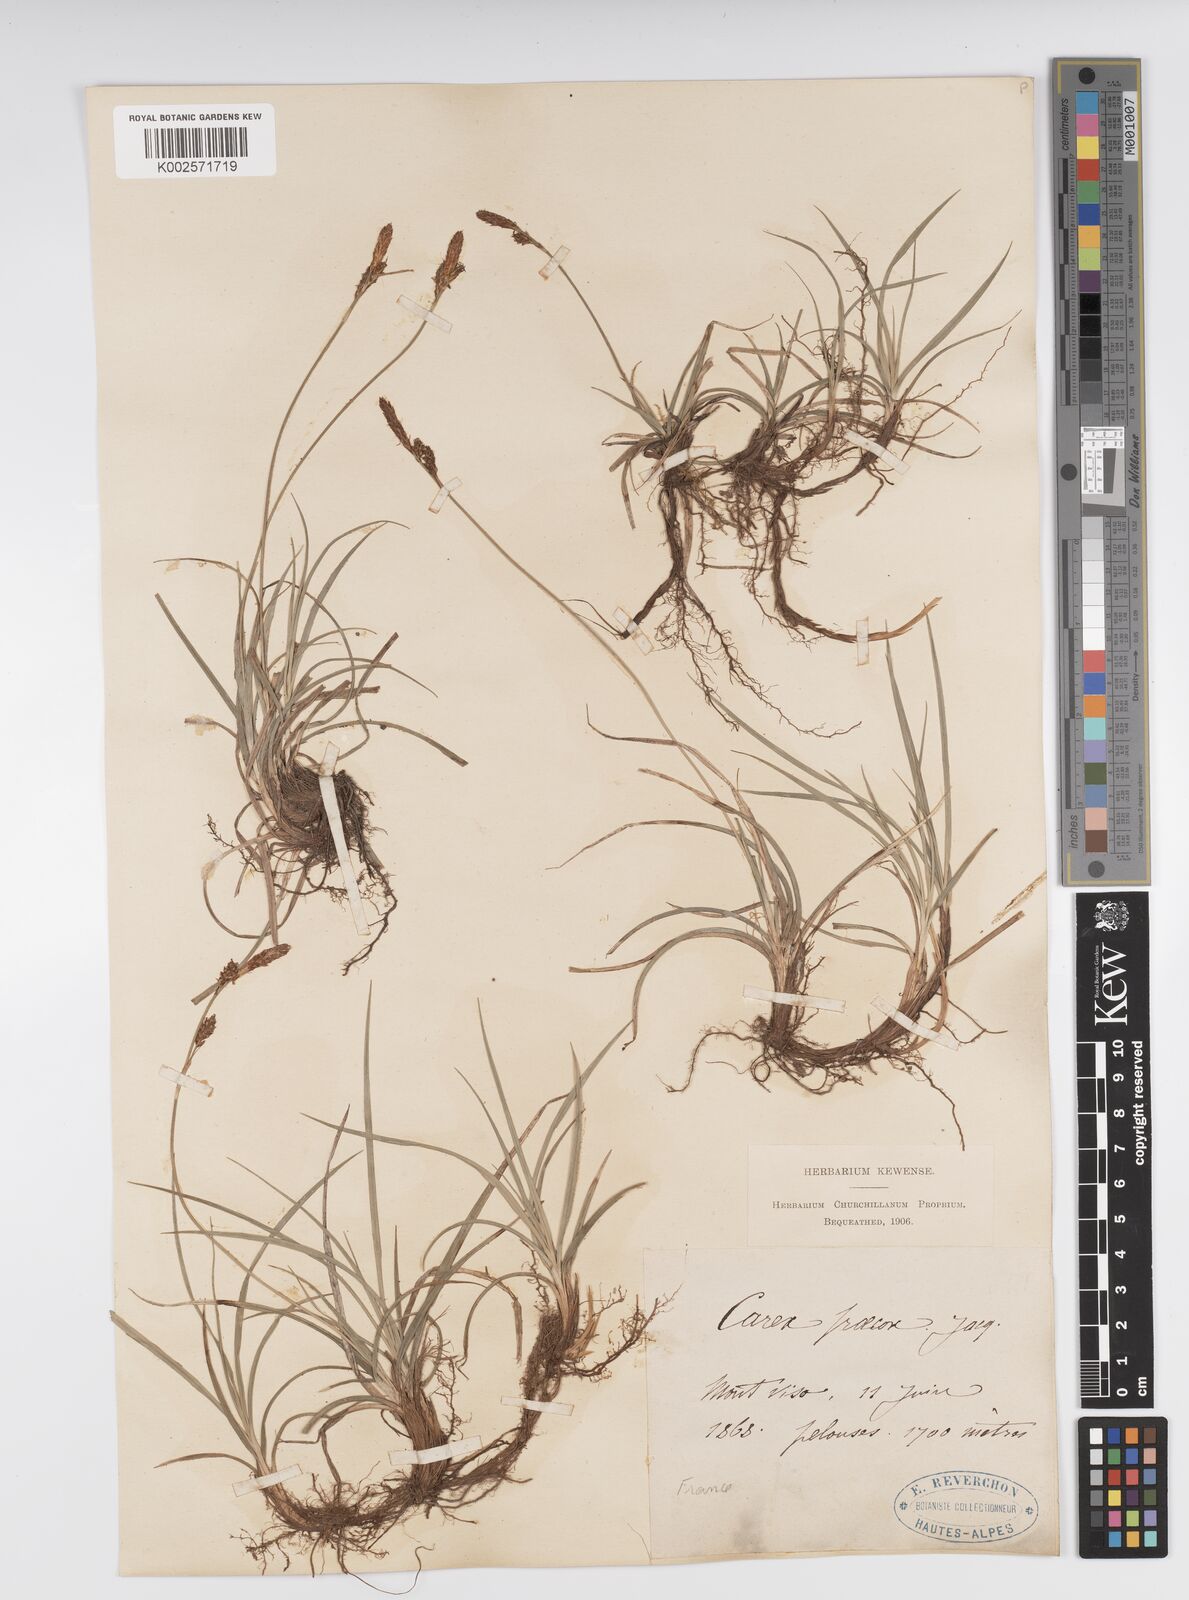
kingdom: Plantae
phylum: Tracheophyta
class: Liliopsida
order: Poales
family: Cyperaceae
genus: Carex
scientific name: Carex caryophyllea
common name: Spring sedge
